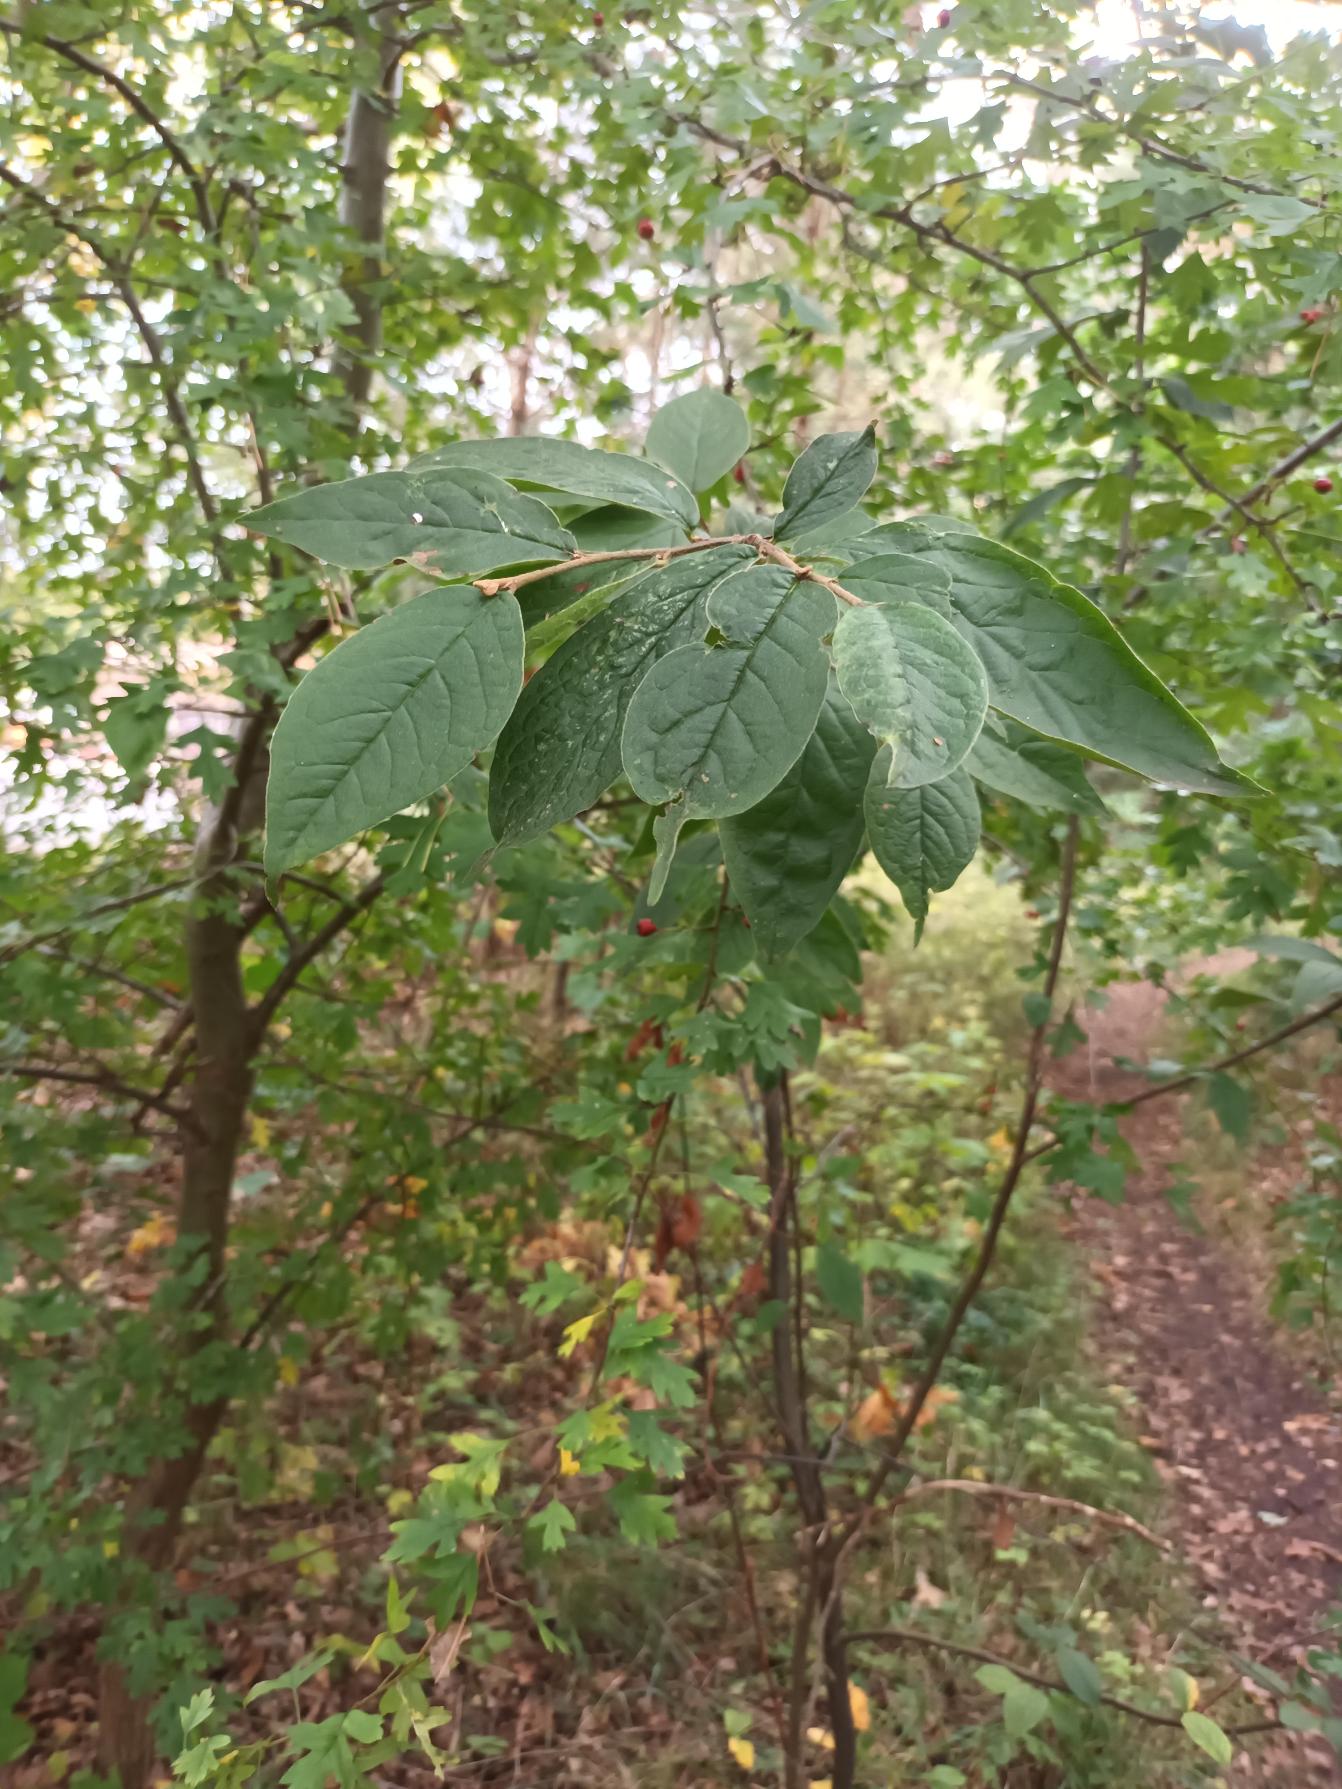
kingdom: Plantae
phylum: Tracheophyta
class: Magnoliopsida
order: Rosales
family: Rosaceae
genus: Cotoneaster
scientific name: Cotoneaster bullatus
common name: Storbladet dværgmispel
